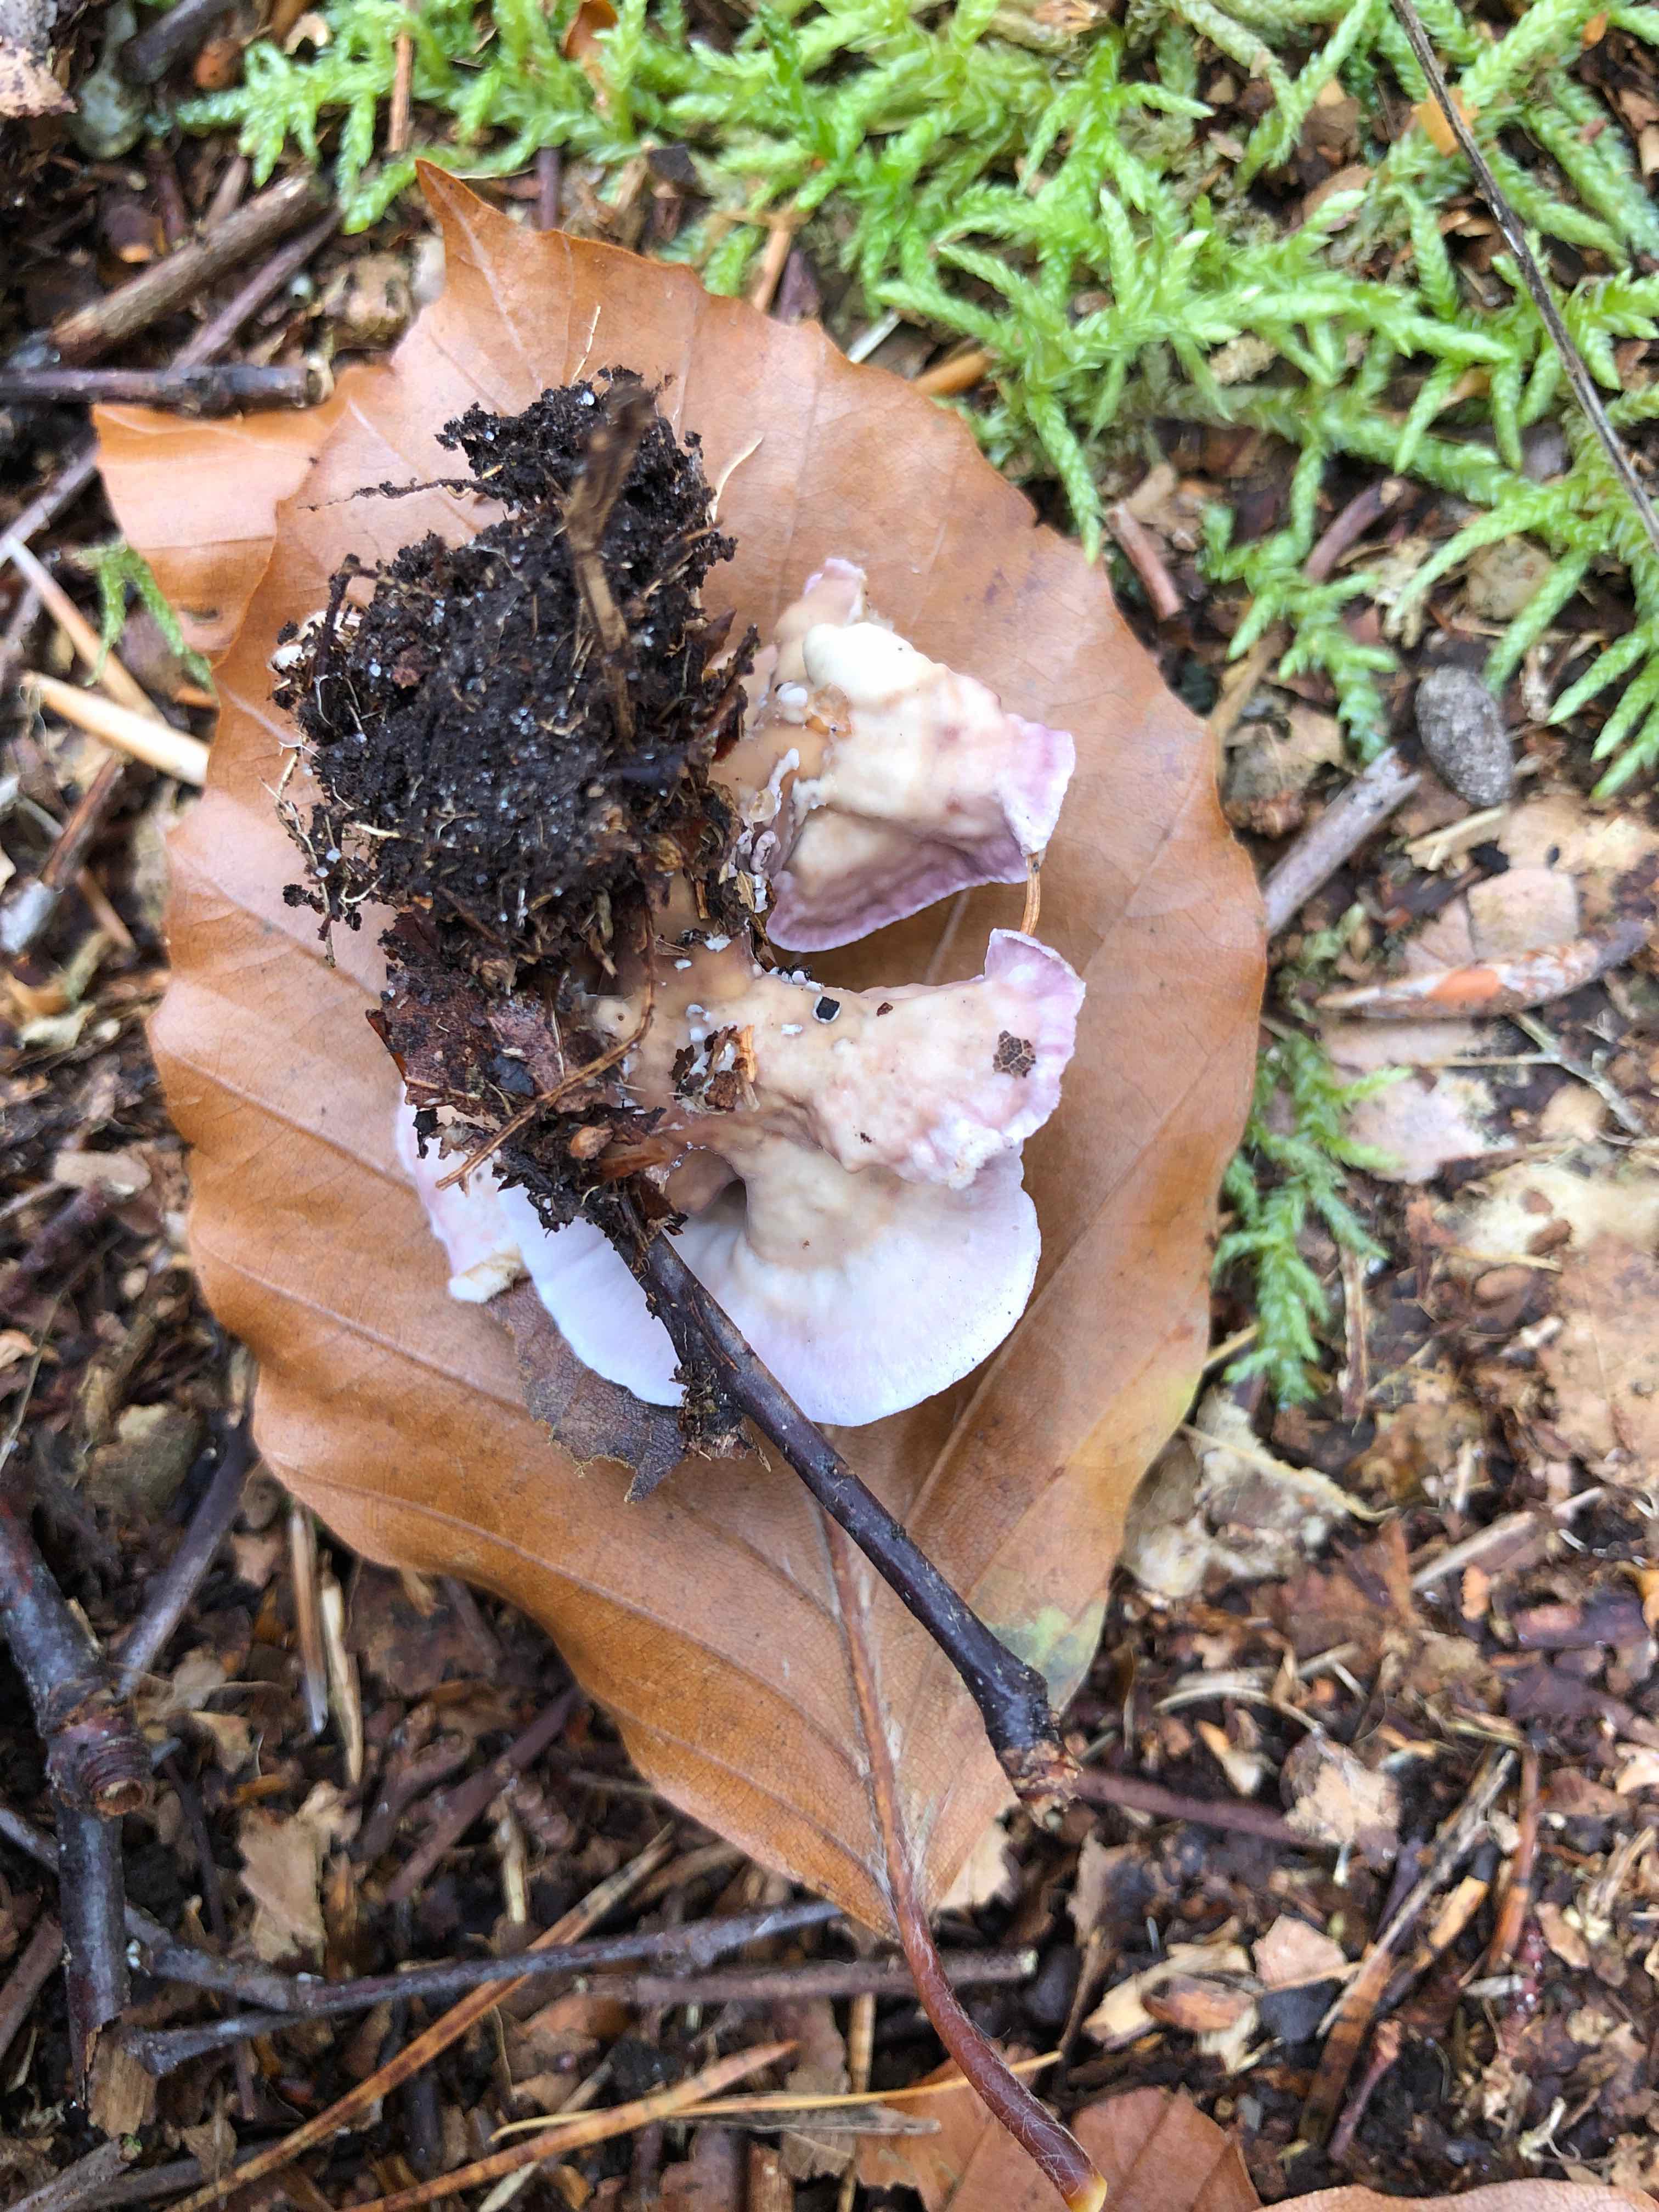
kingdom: Fungi
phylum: Basidiomycota
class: Agaricomycetes
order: Agaricales
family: Cyphellaceae
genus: Chondrostereum
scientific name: Chondrostereum purpureum
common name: purpurlædersvamp
